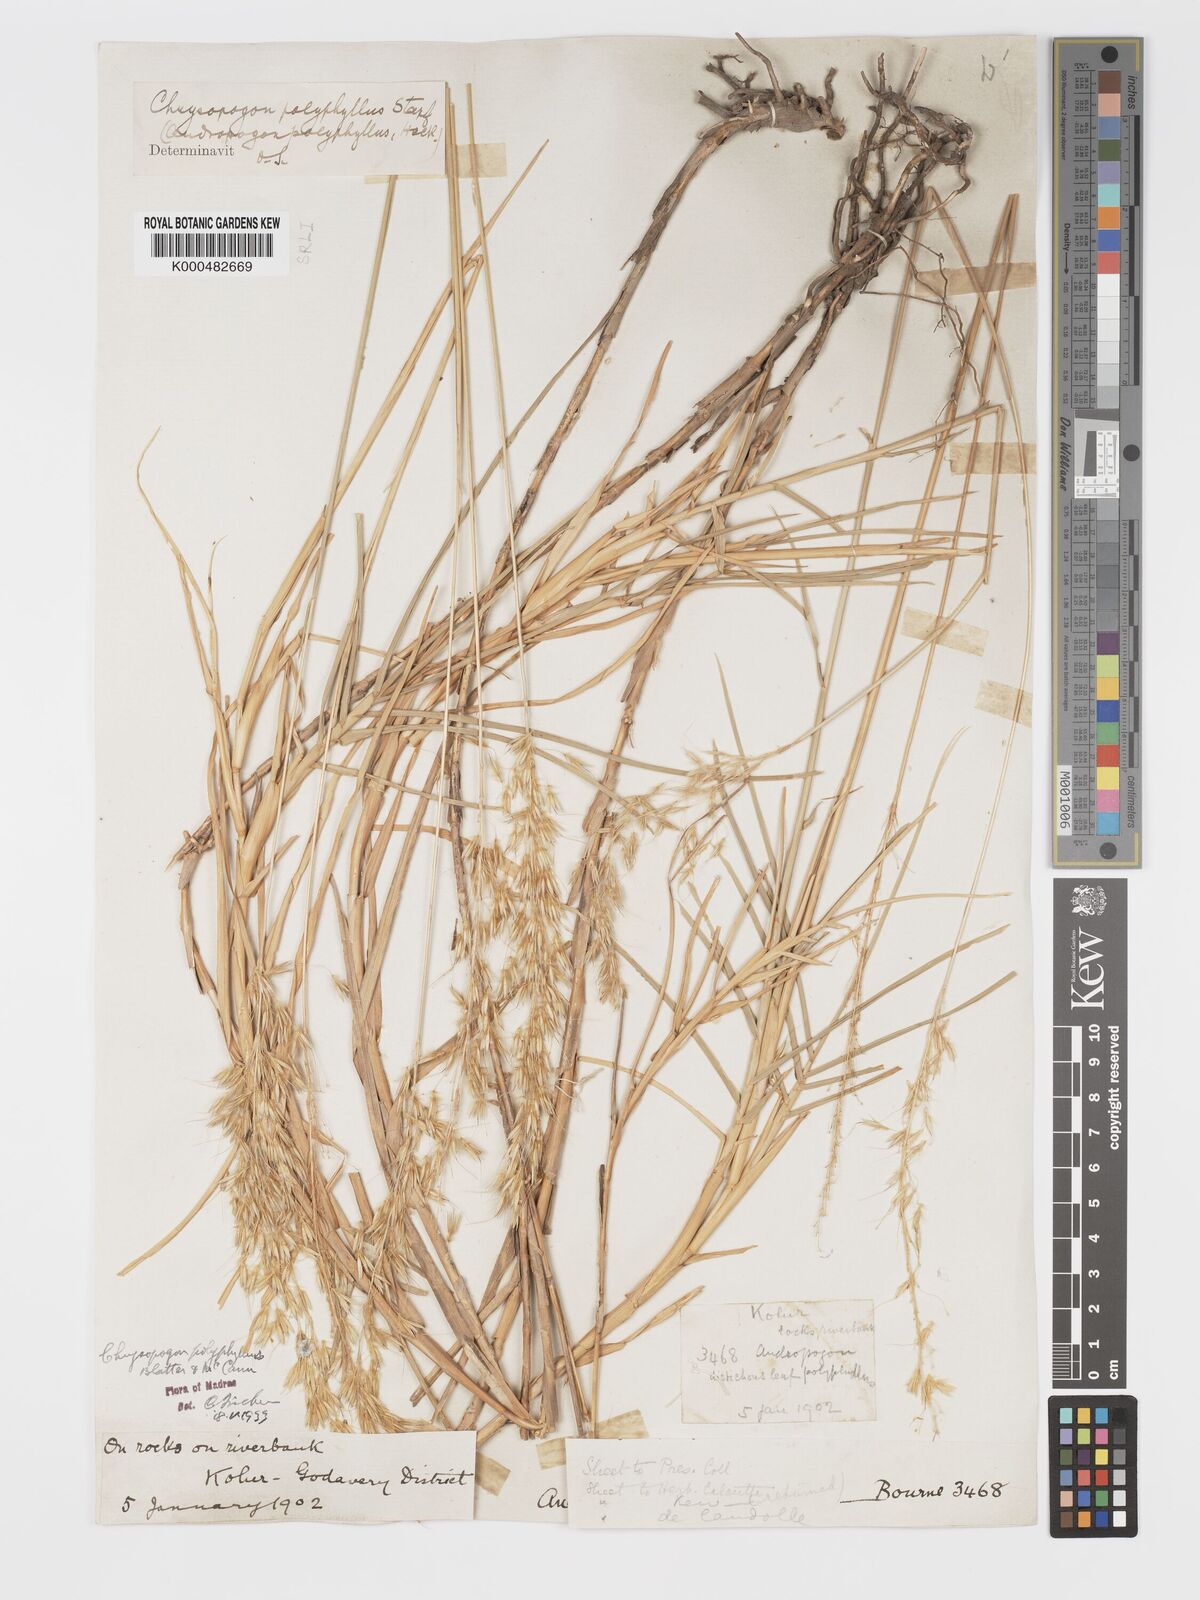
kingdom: Plantae
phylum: Tracheophyta
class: Liliopsida
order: Poales
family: Poaceae
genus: Chrysopogon
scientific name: Chrysopogon polyphyllus
